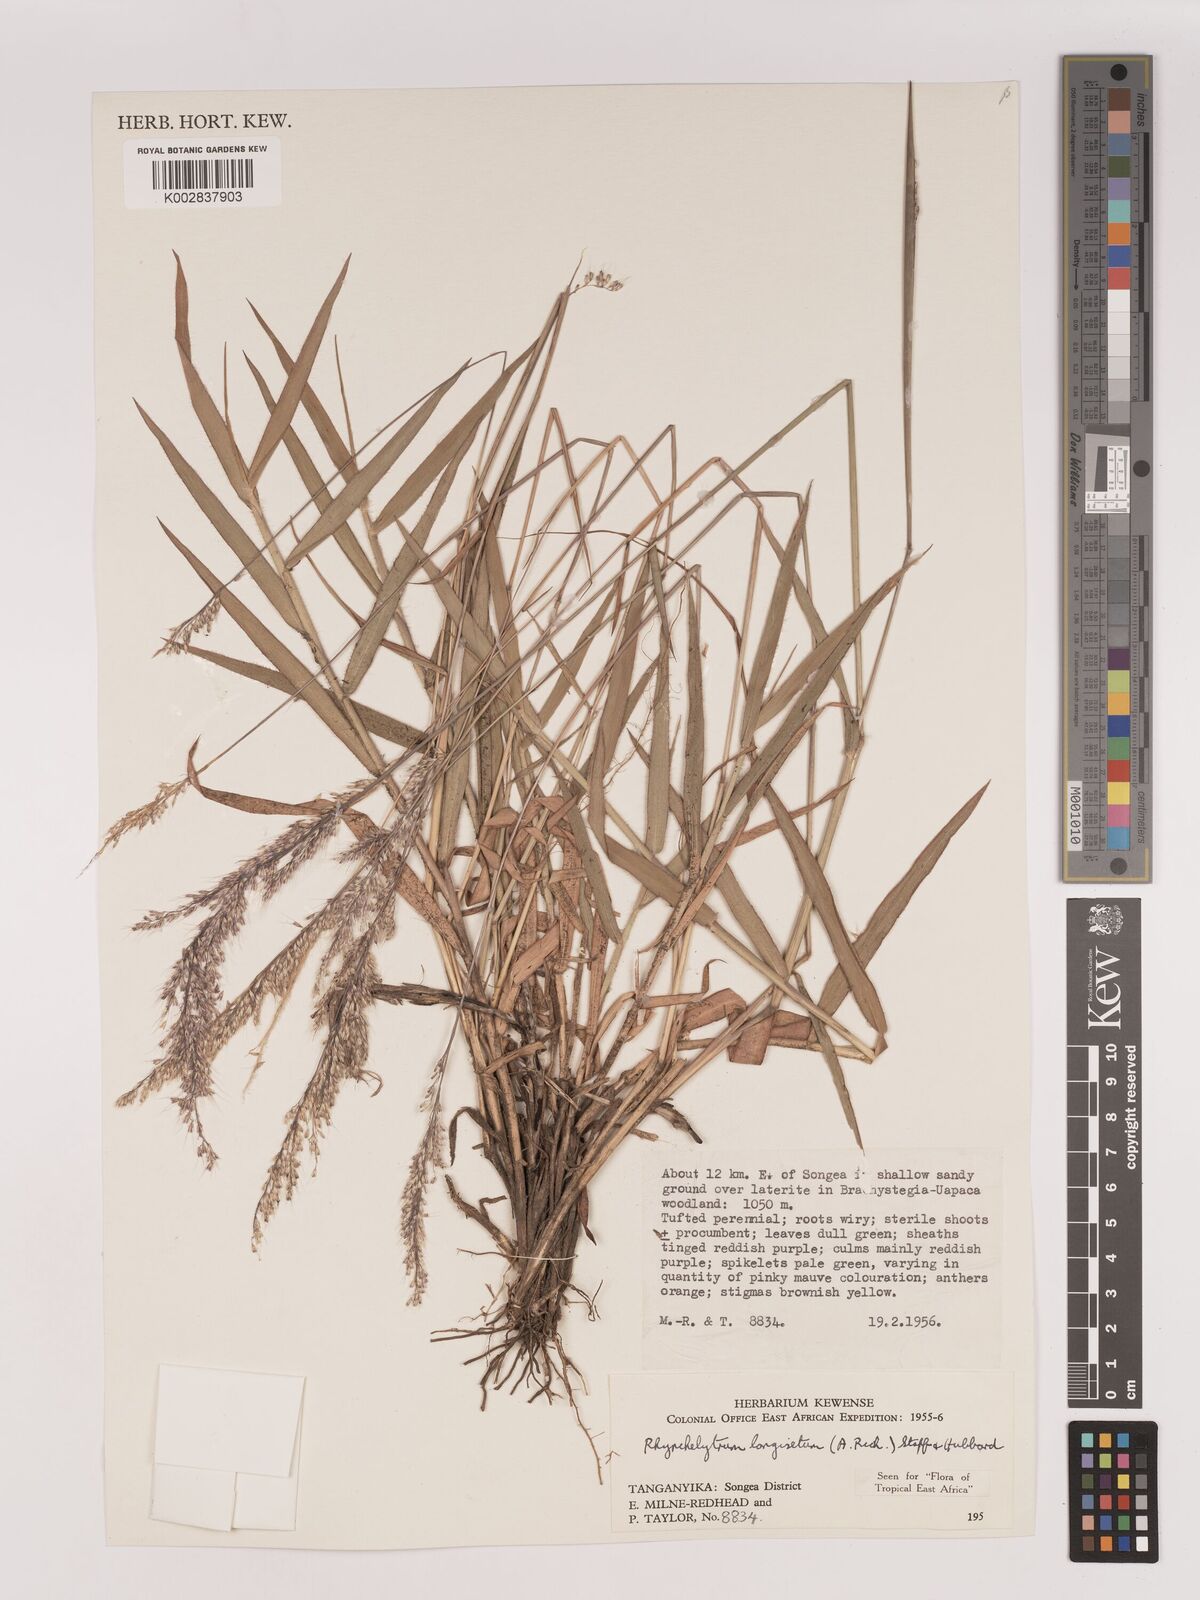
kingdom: Plantae
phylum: Tracheophyta
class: Liliopsida
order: Poales
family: Poaceae
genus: Melinis
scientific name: Melinis longiseta
